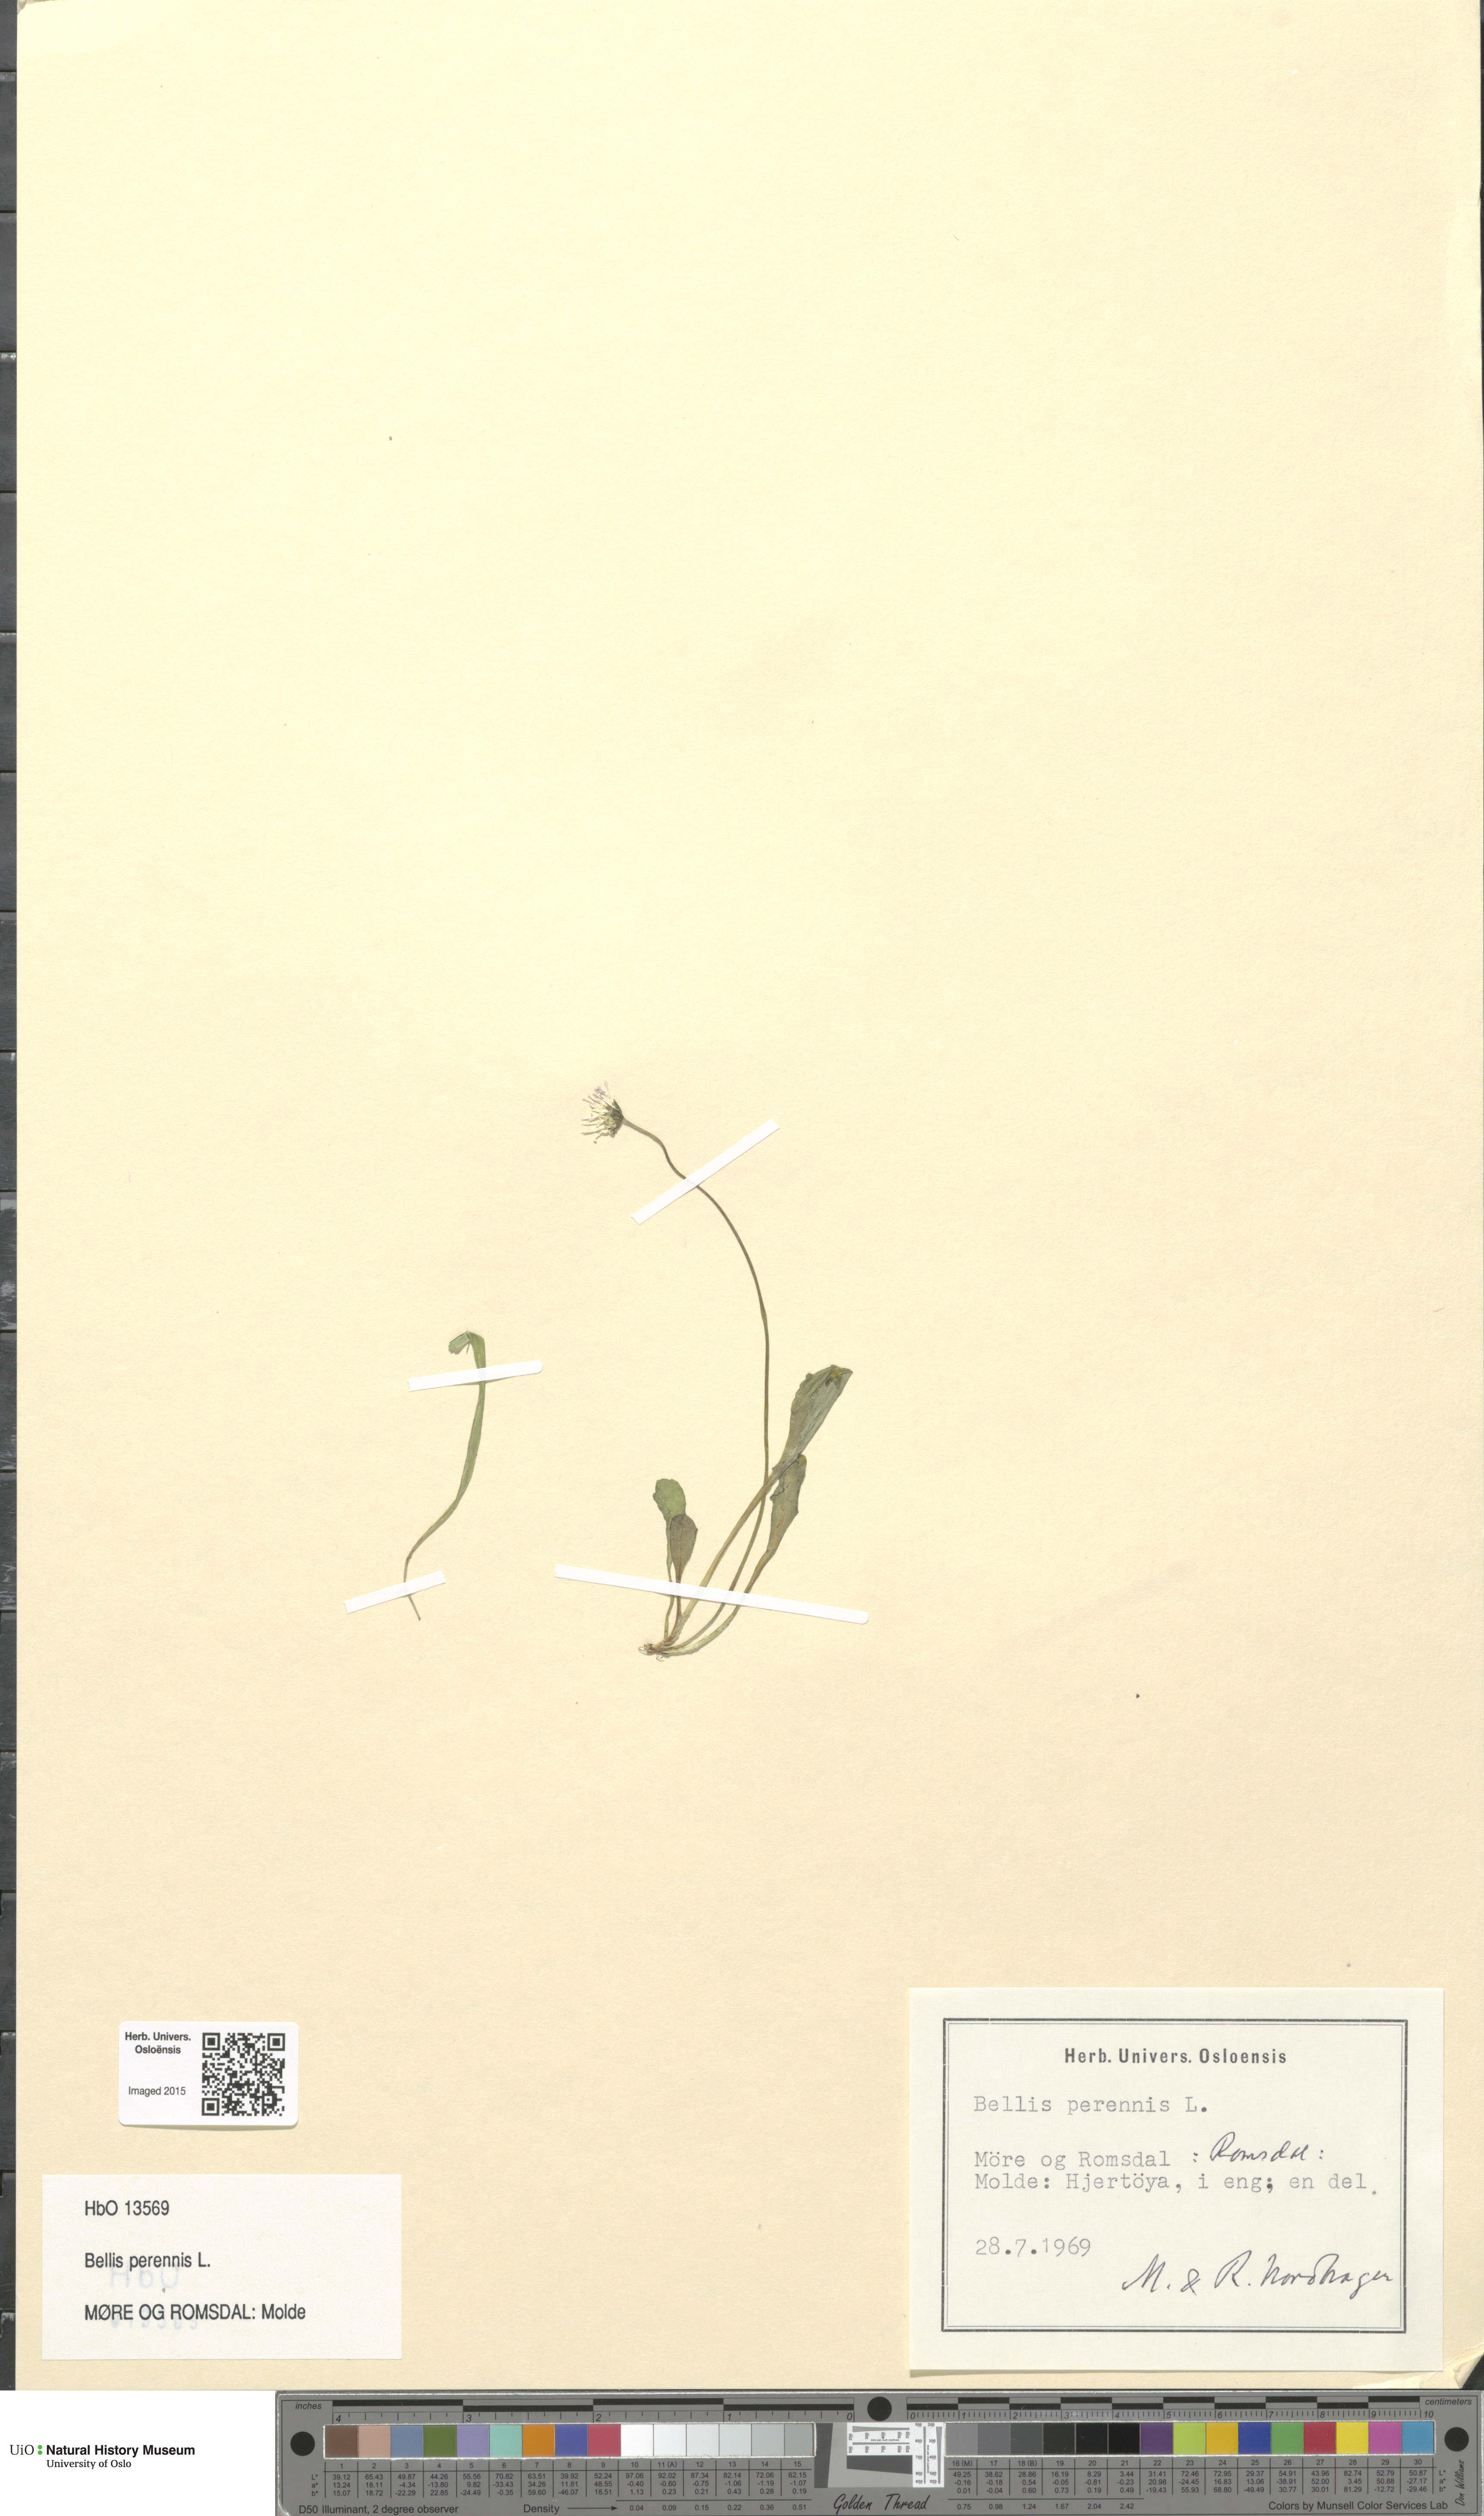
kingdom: Plantae
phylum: Tracheophyta
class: Magnoliopsida
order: Asterales
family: Asteraceae
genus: Bellis
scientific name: Bellis perennis
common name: Lawndaisy
